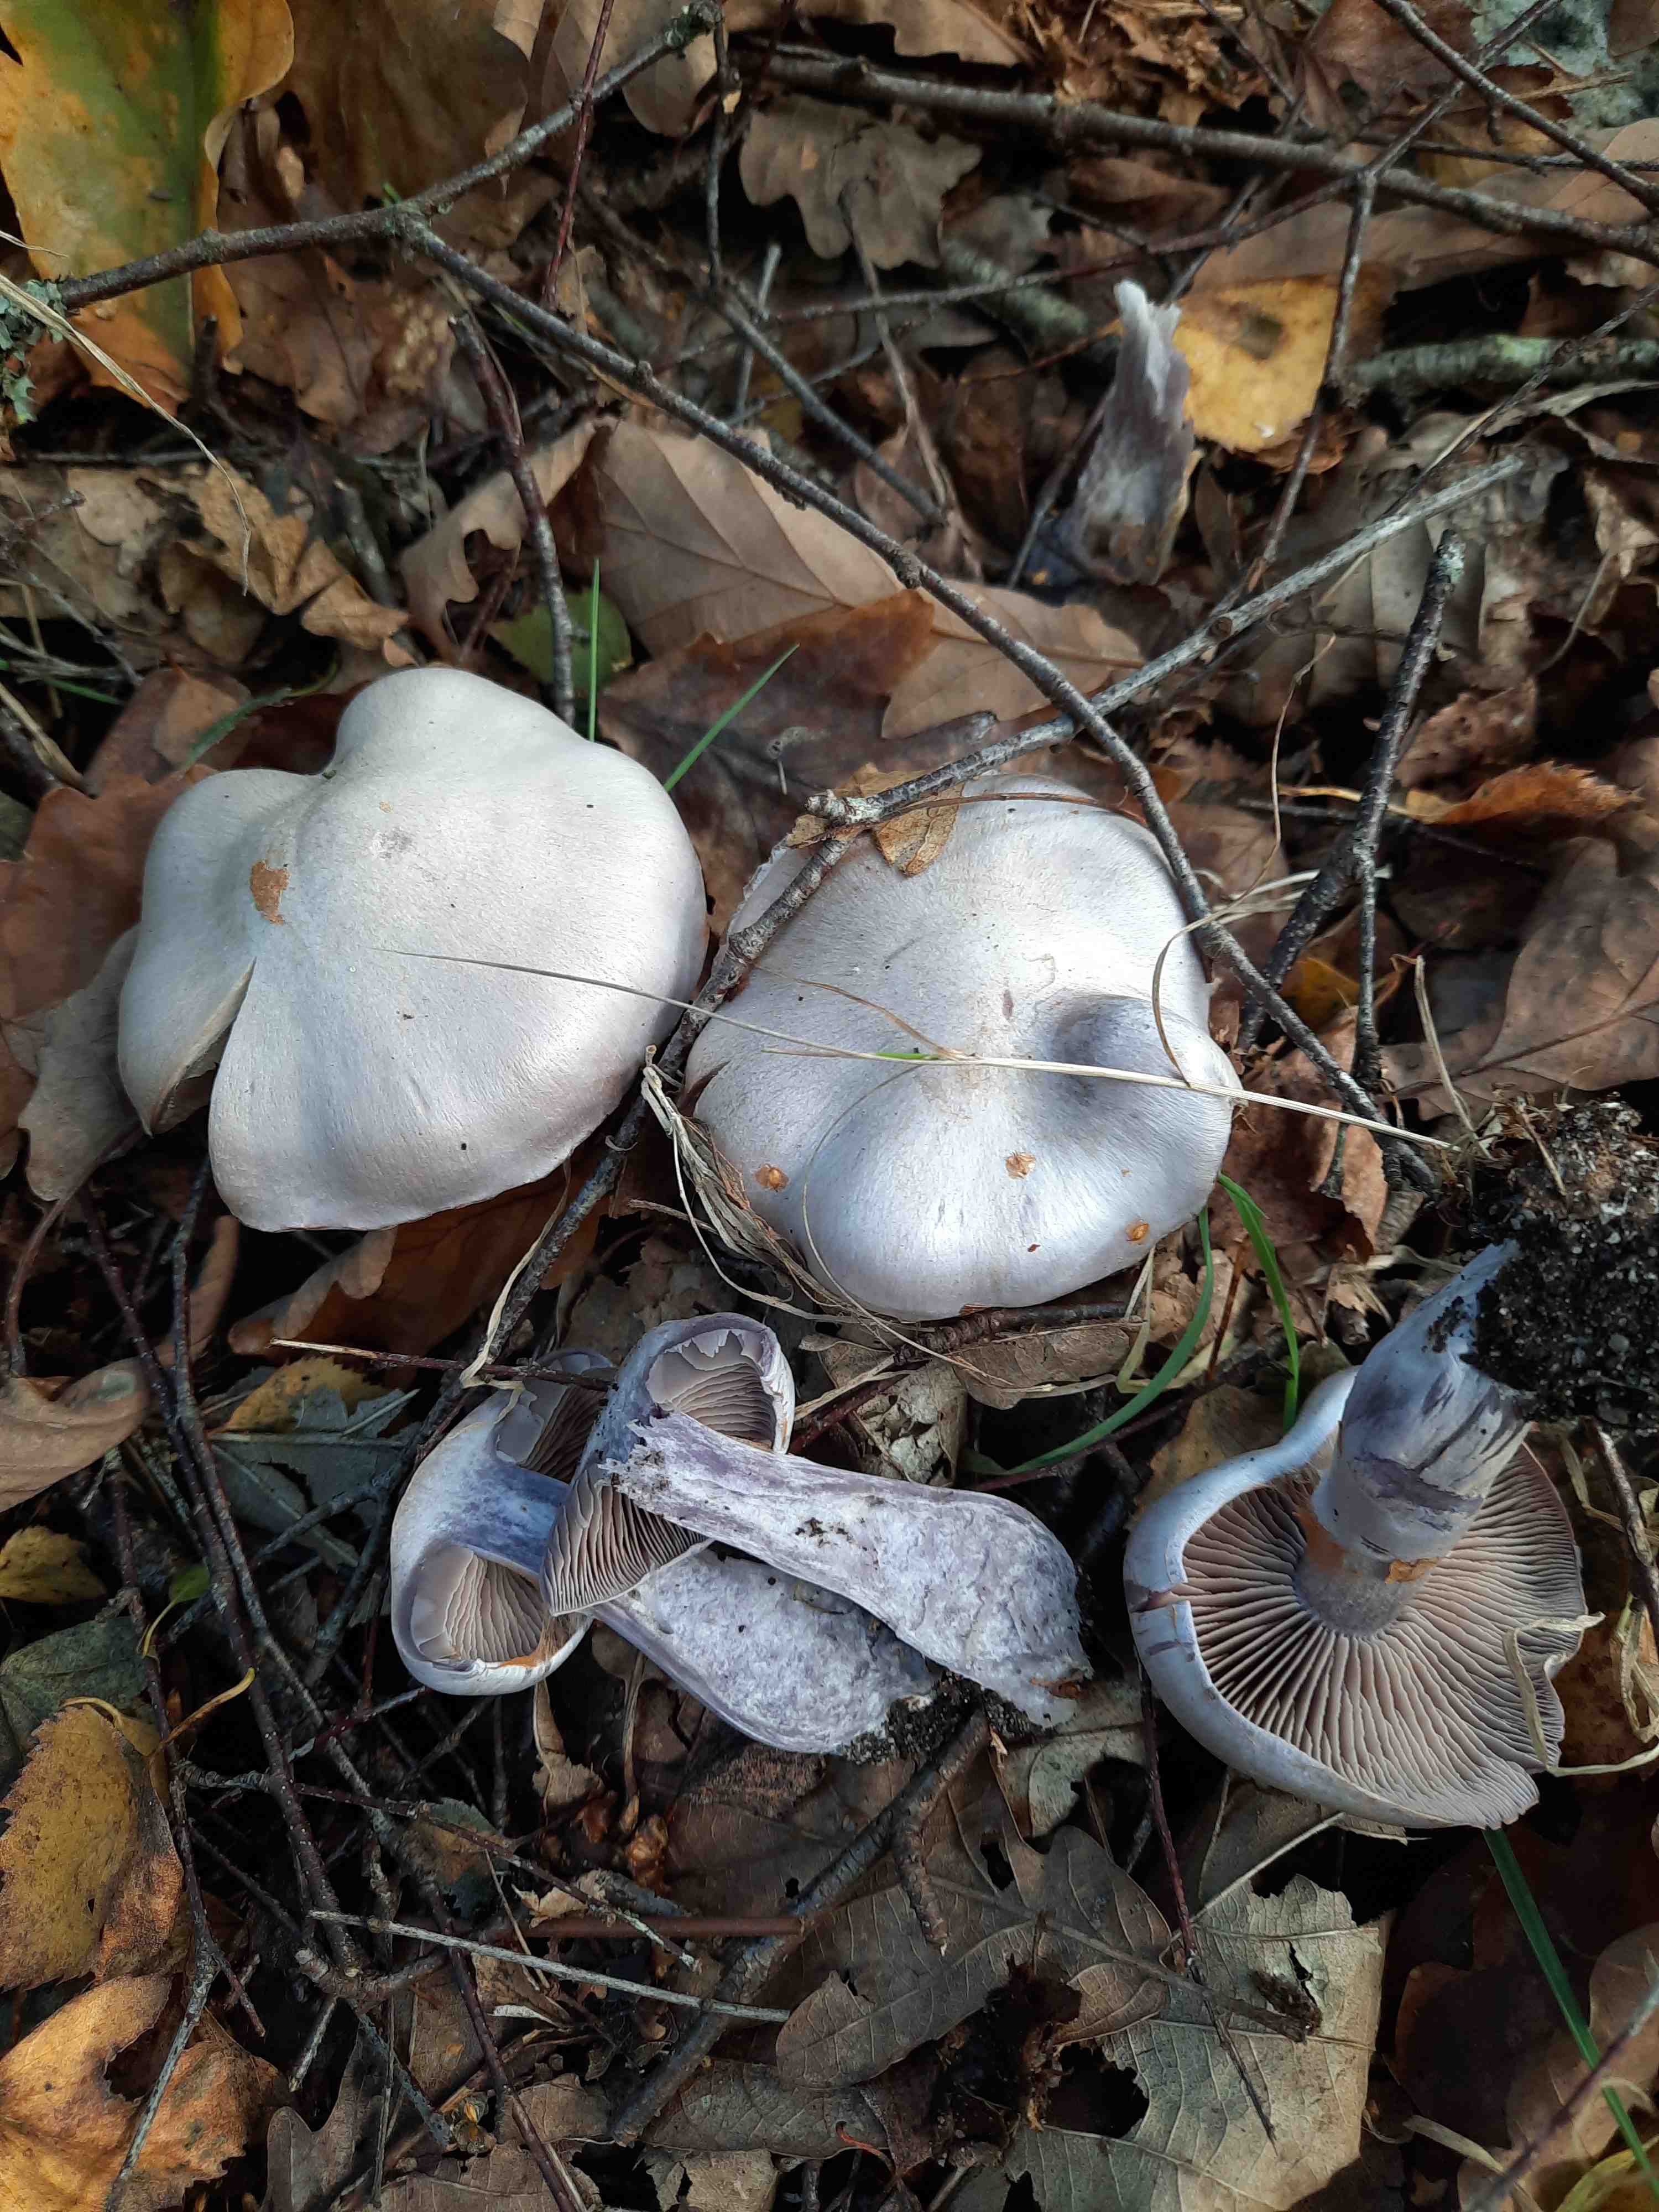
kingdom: Fungi
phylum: Basidiomycota
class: Agaricomycetes
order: Agaricales
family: Cortinariaceae
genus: Cortinarius
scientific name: Cortinarius alboviolaceus
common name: lysviolet slørhat
